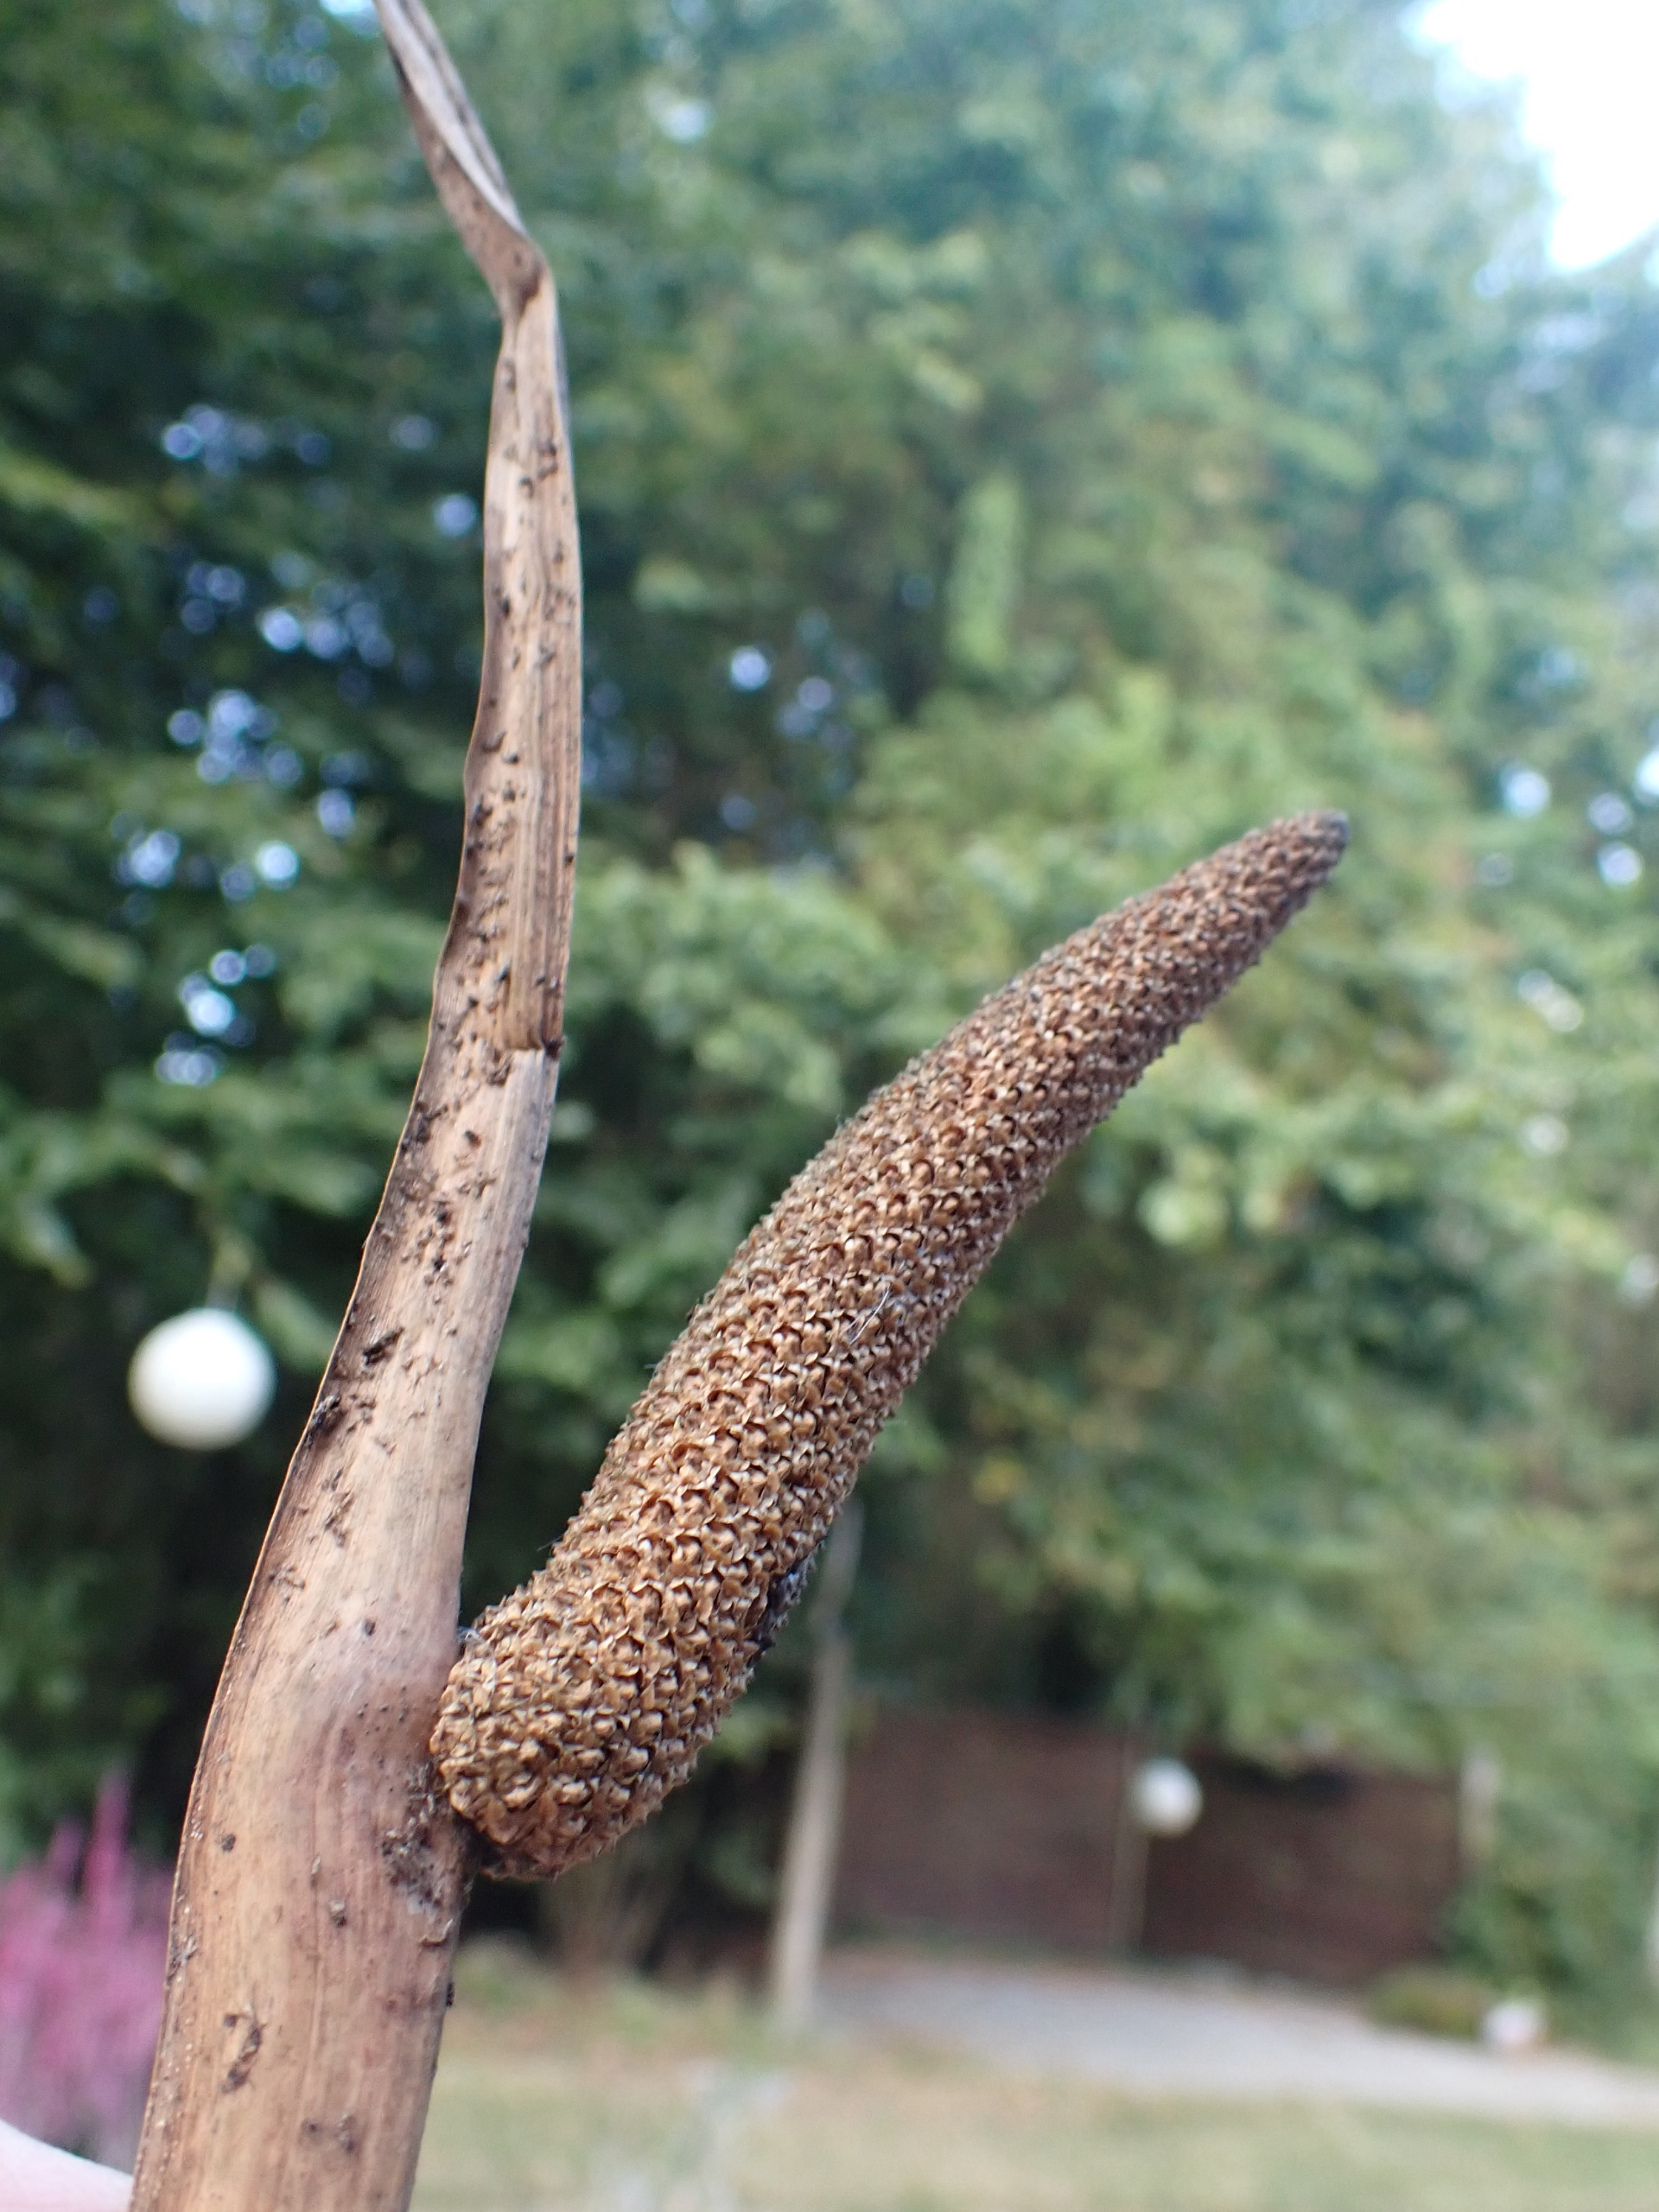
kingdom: Plantae
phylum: Tracheophyta
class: Liliopsida
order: Acorales
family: Acoraceae
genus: Acorus
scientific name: Acorus calamus
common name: Kalmus
